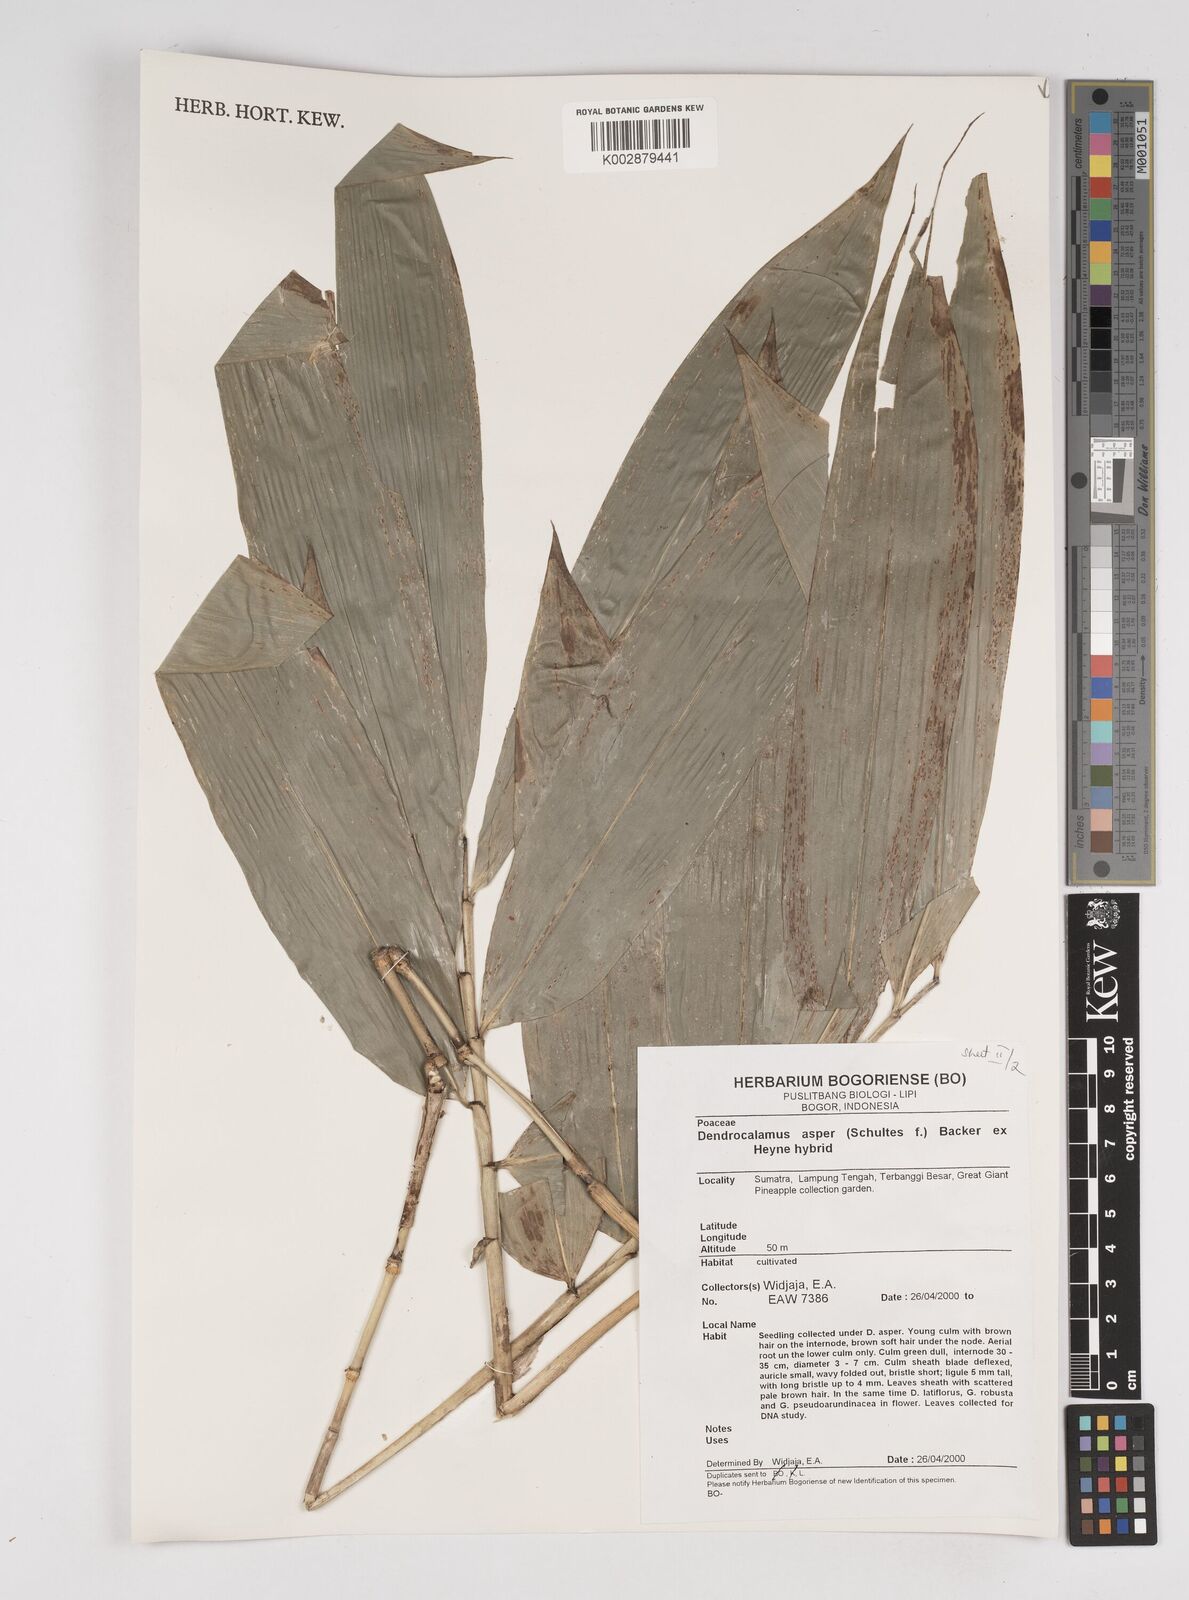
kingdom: Plantae
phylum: Tracheophyta
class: Liliopsida
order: Poales
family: Poaceae
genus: Dendrocalamus
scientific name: Dendrocalamus asper
